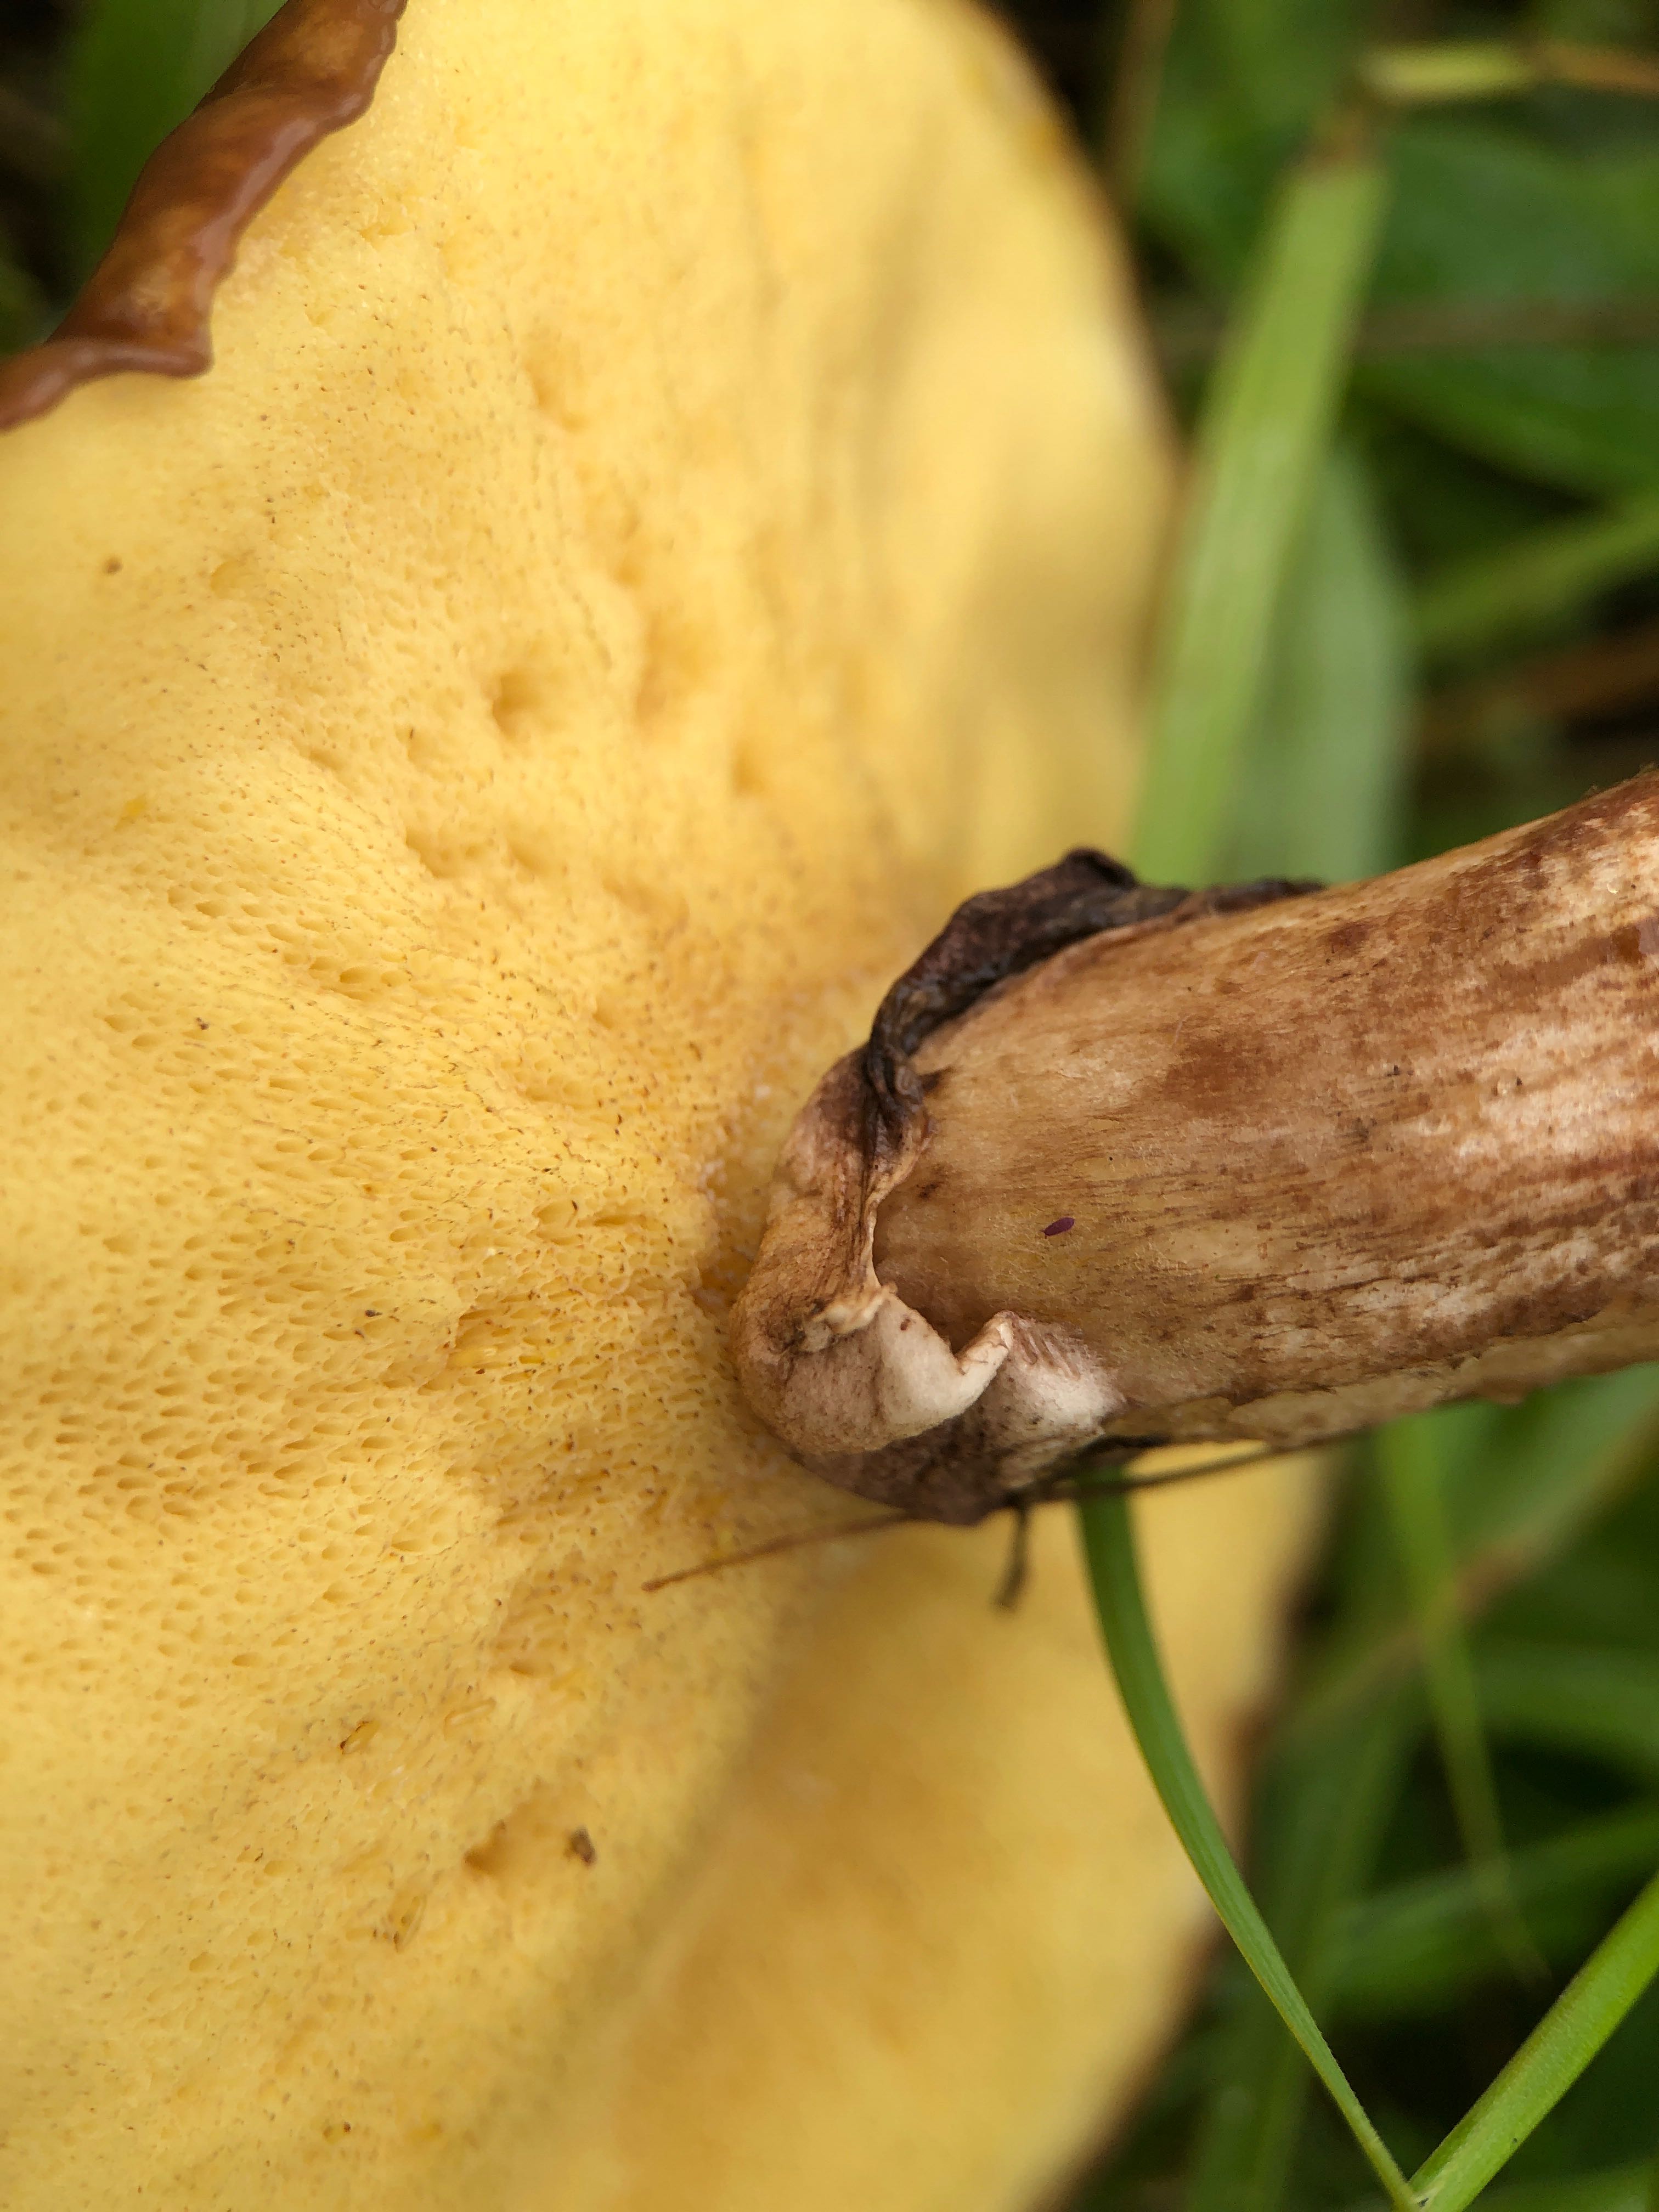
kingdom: Fungi
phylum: Basidiomycota
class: Agaricomycetes
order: Boletales
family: Suillaceae
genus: Suillus
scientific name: Suillus luteus
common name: brungul slimrørhat
